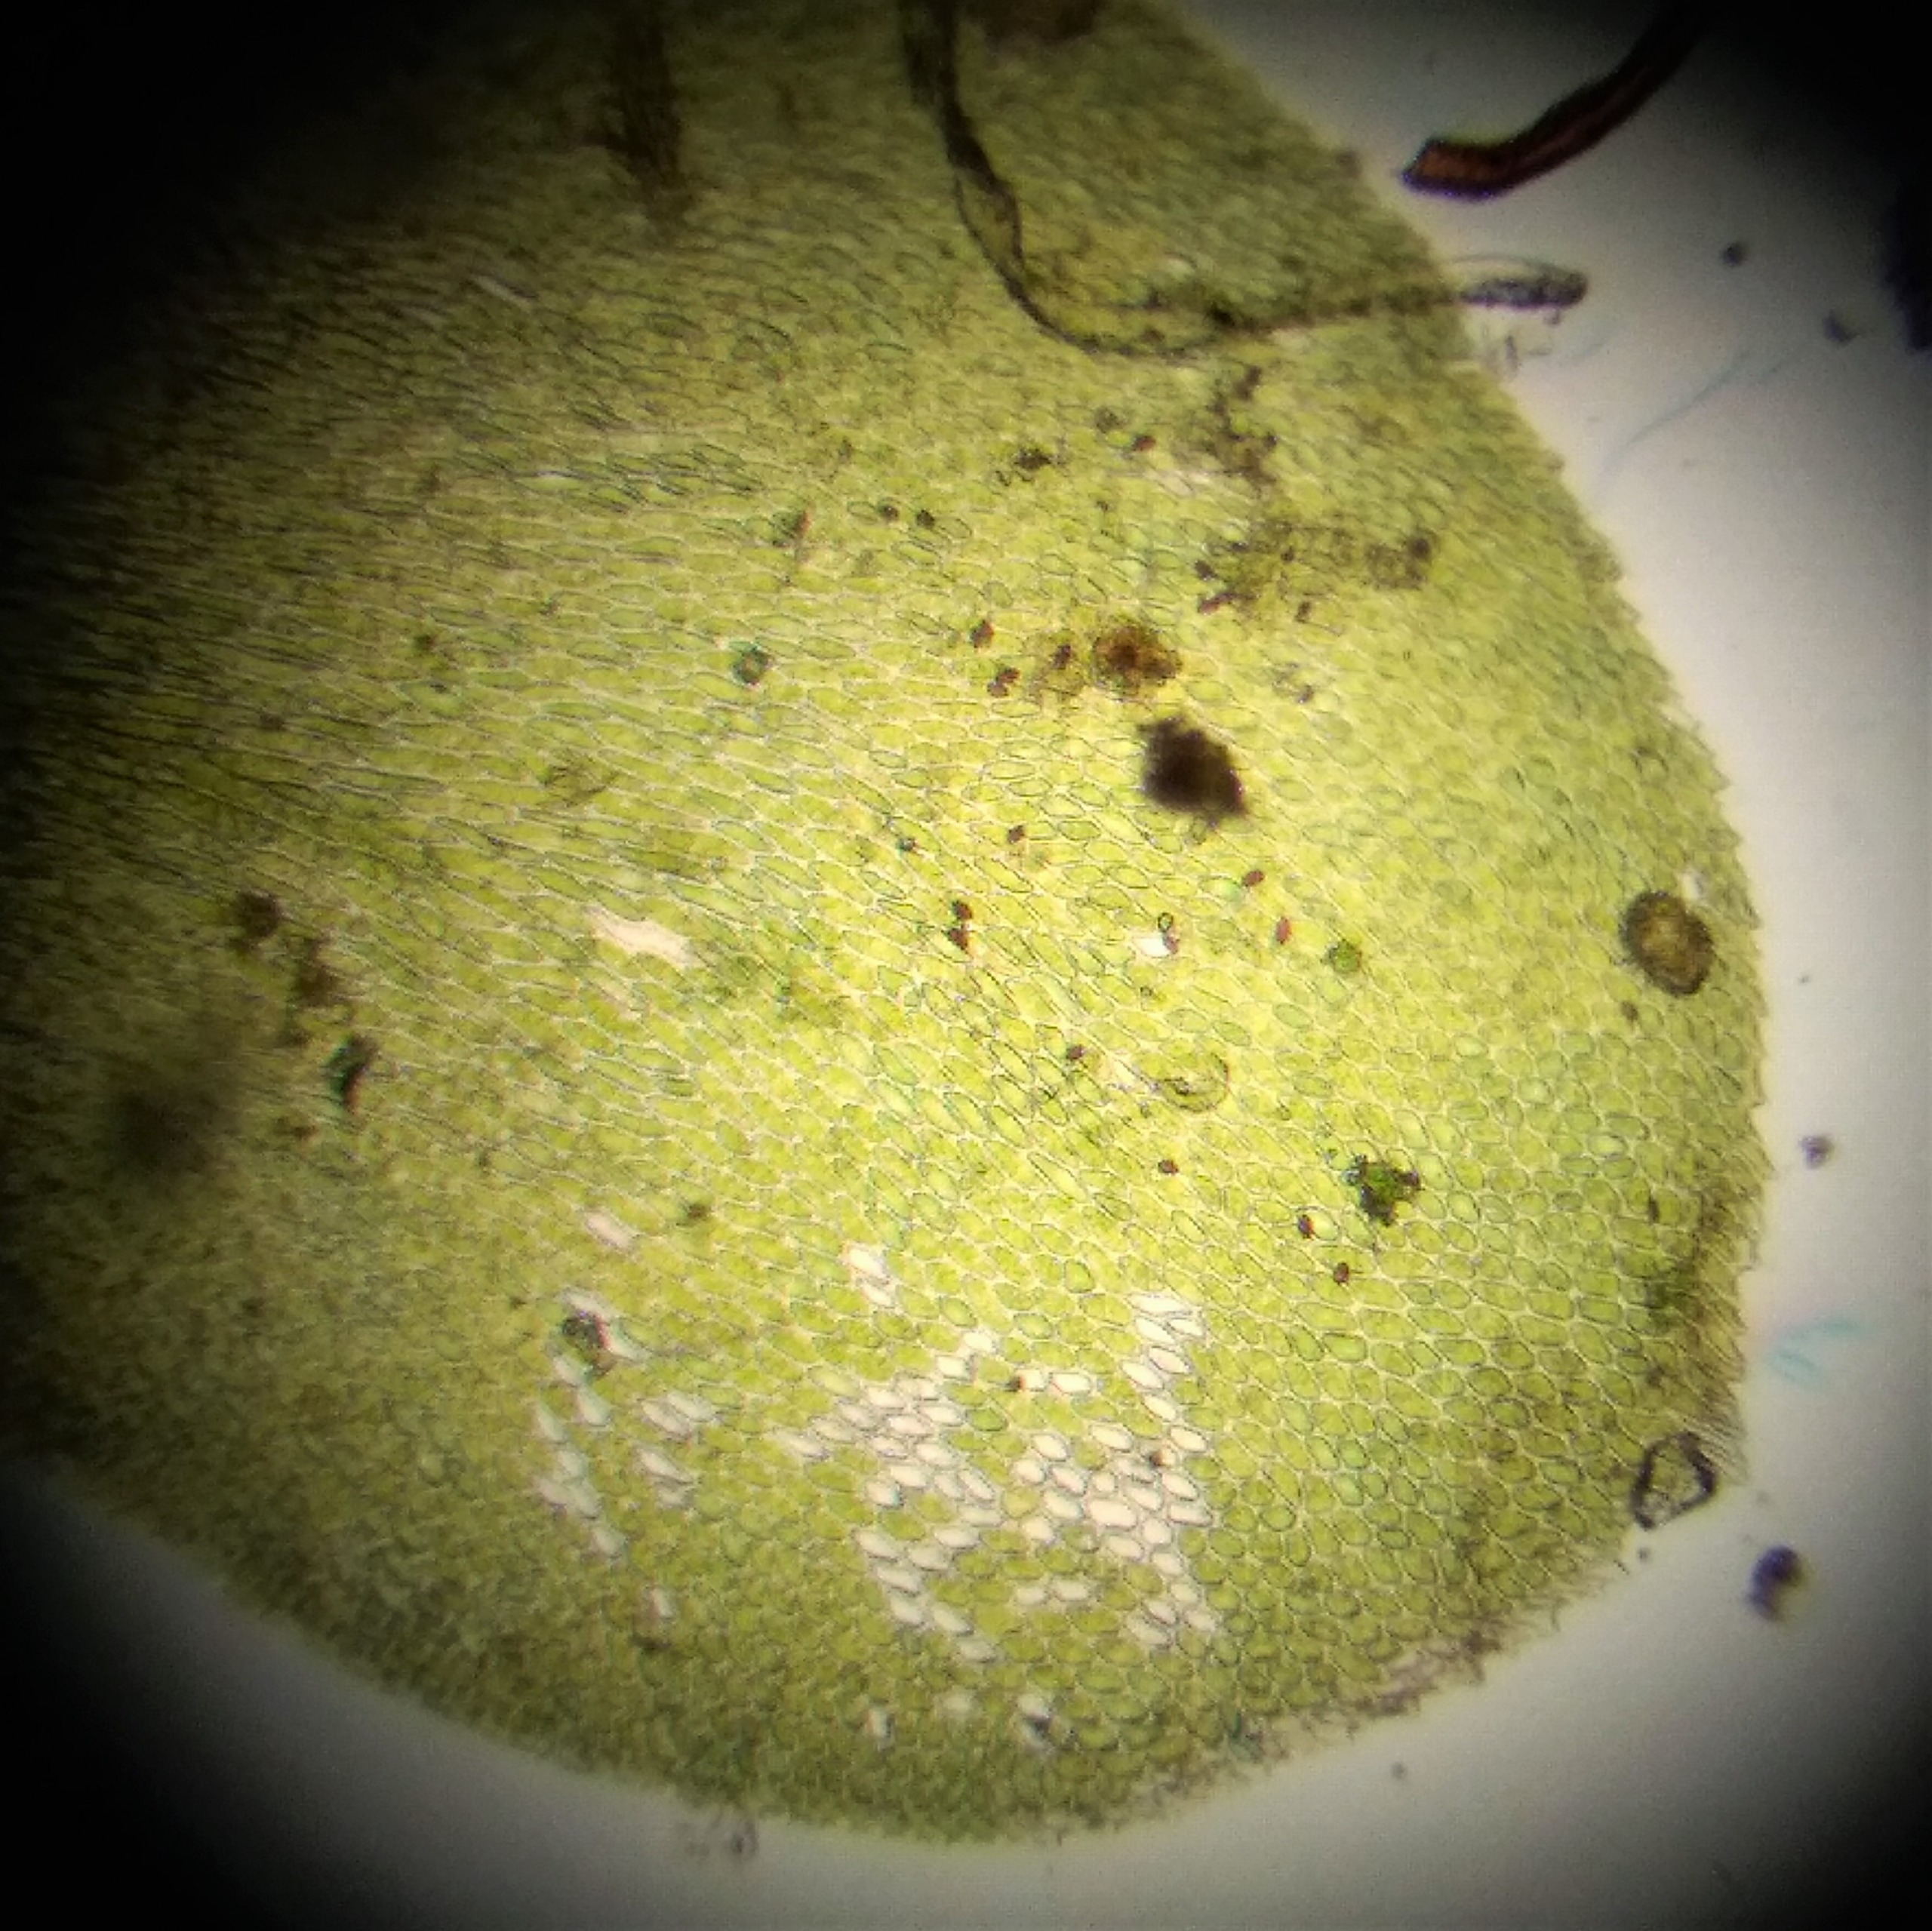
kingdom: Plantae
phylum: Bryophyta
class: Bryopsida
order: Hypnales
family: Neckeraceae
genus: Homalia
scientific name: Homalia trichomanoides
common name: Skov-tungemos
